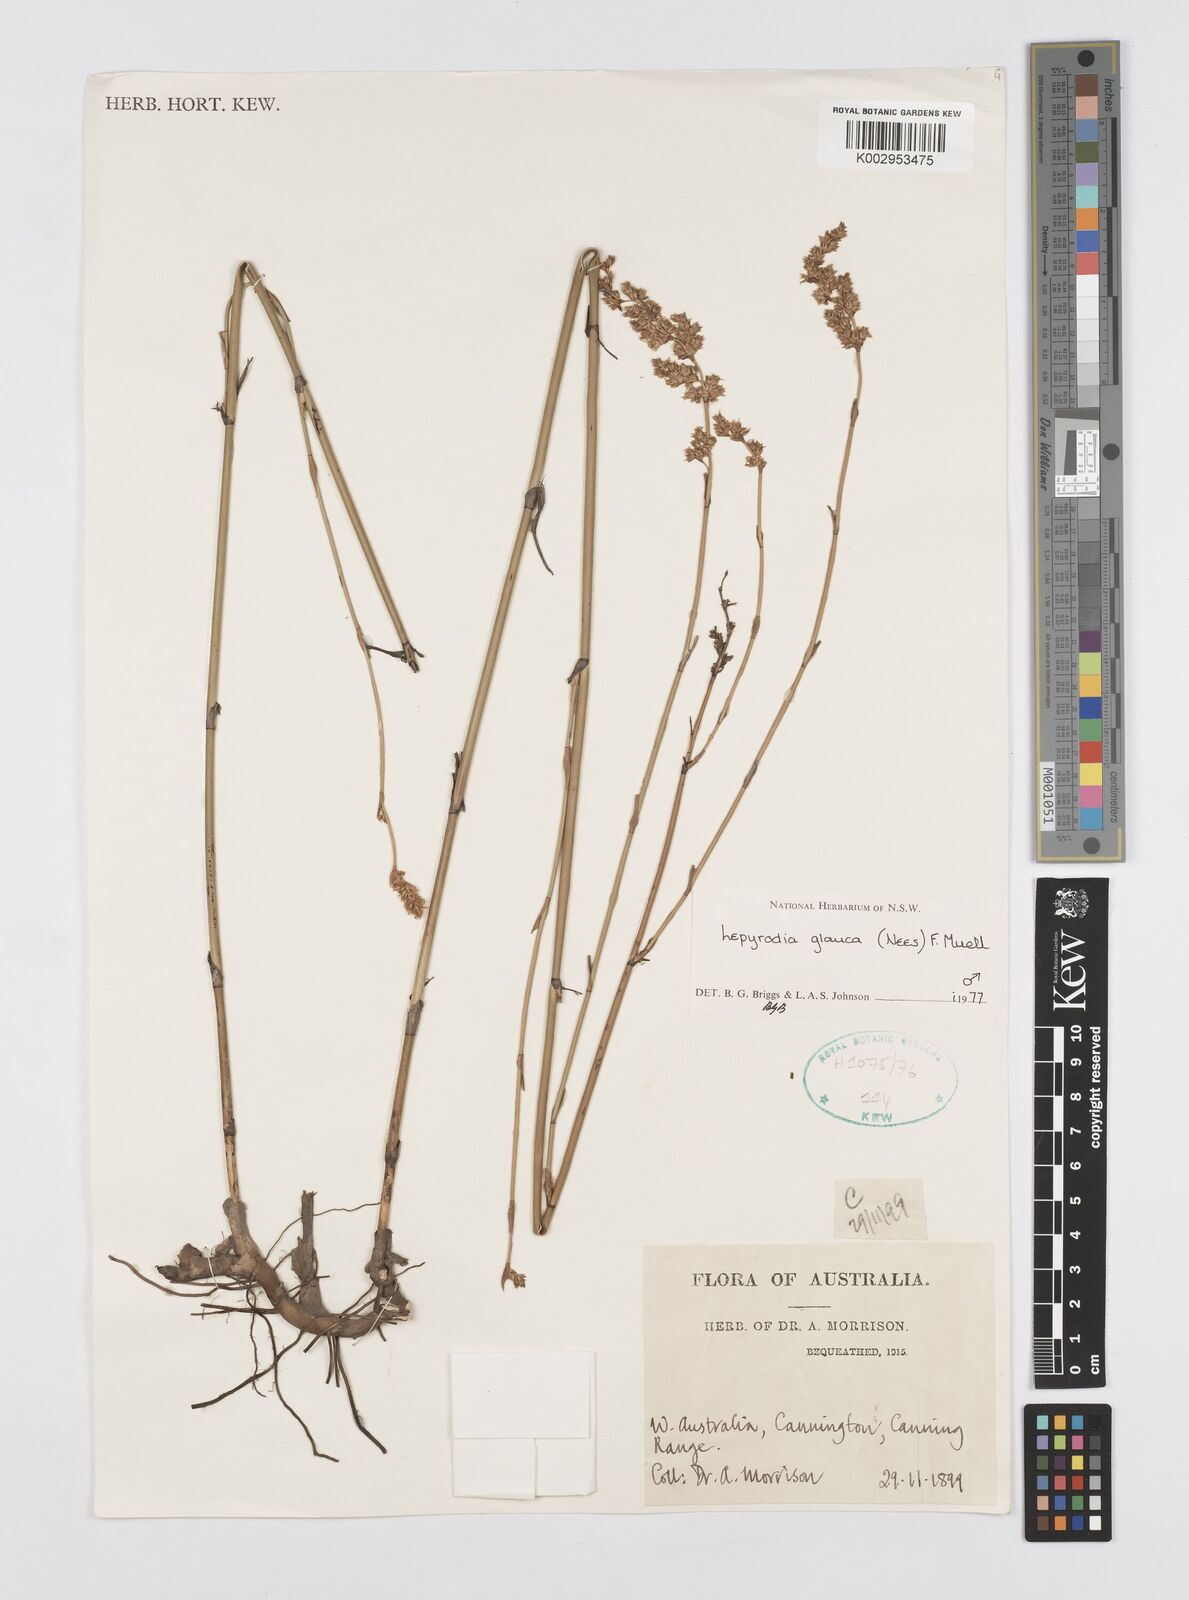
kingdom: Plantae
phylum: Tracheophyta
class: Liliopsida
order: Poales
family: Restionaceae
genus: Lepyrodia
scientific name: Lepyrodia glauca
